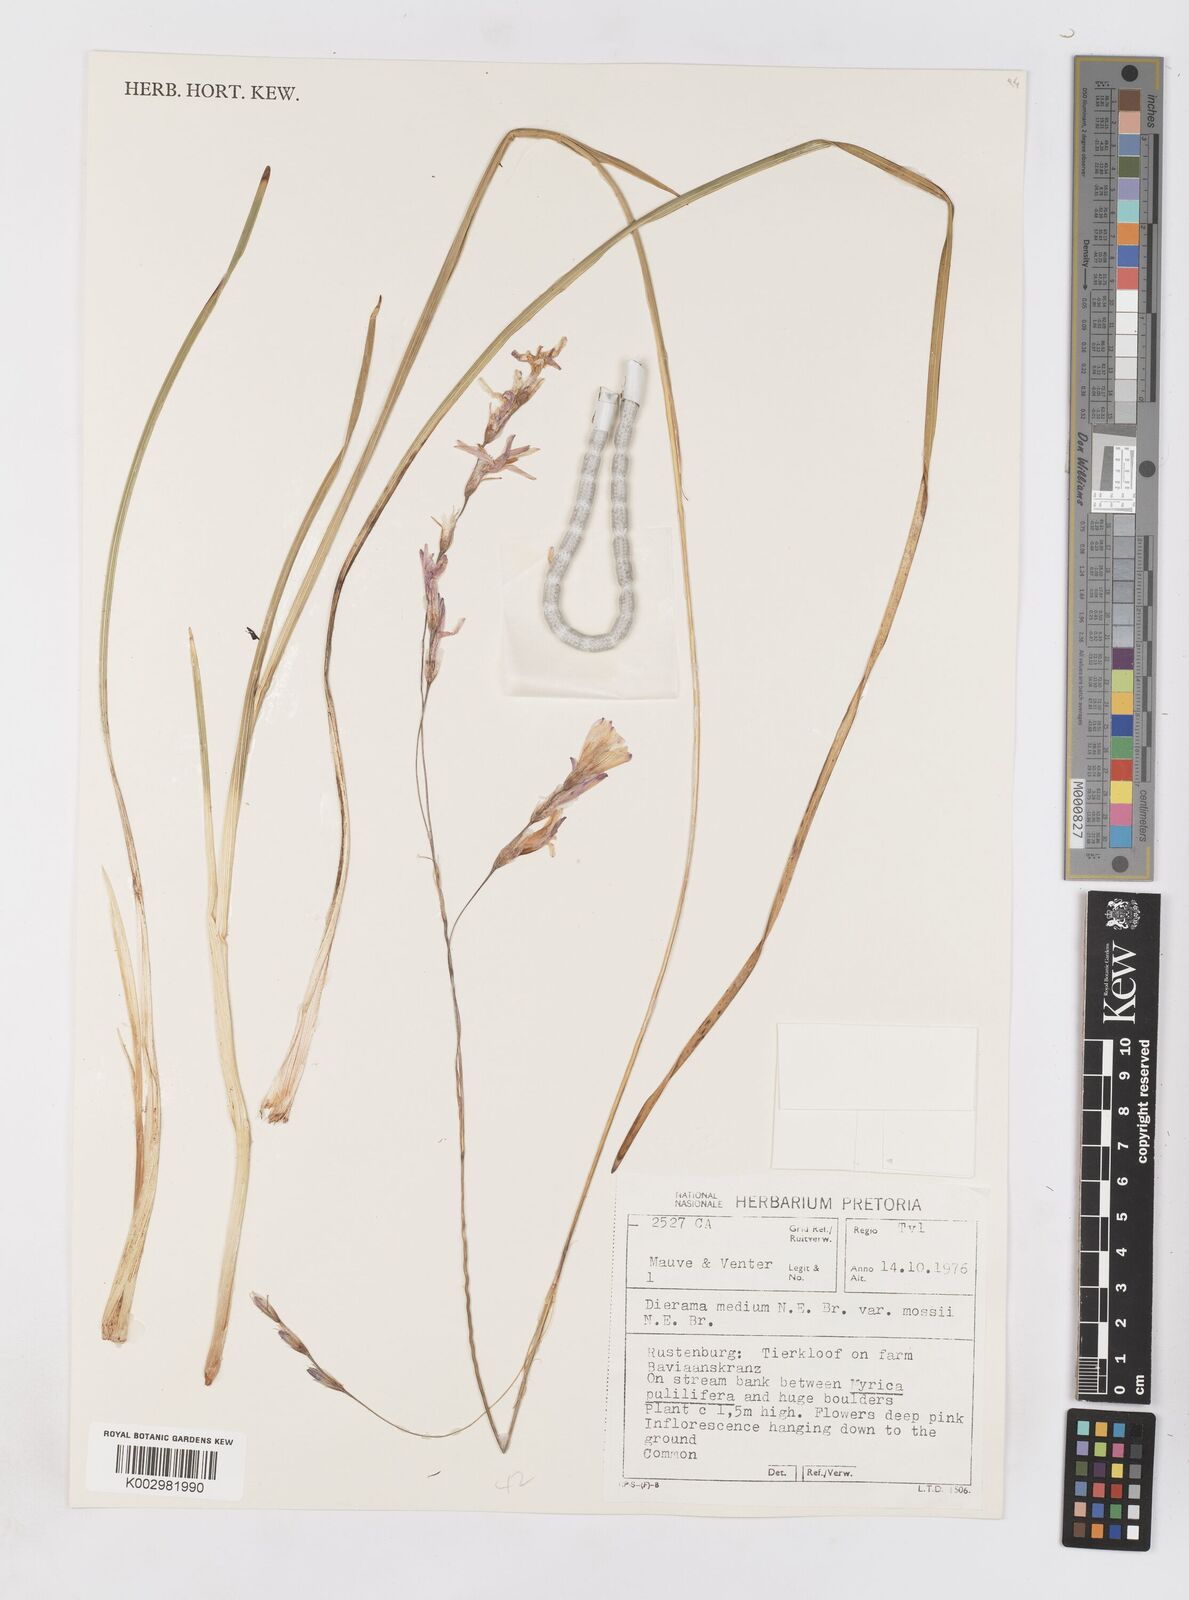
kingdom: Plantae
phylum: Tracheophyta
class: Liliopsida
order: Asparagales
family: Iridaceae
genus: Dierama
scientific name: Dierama mossii
